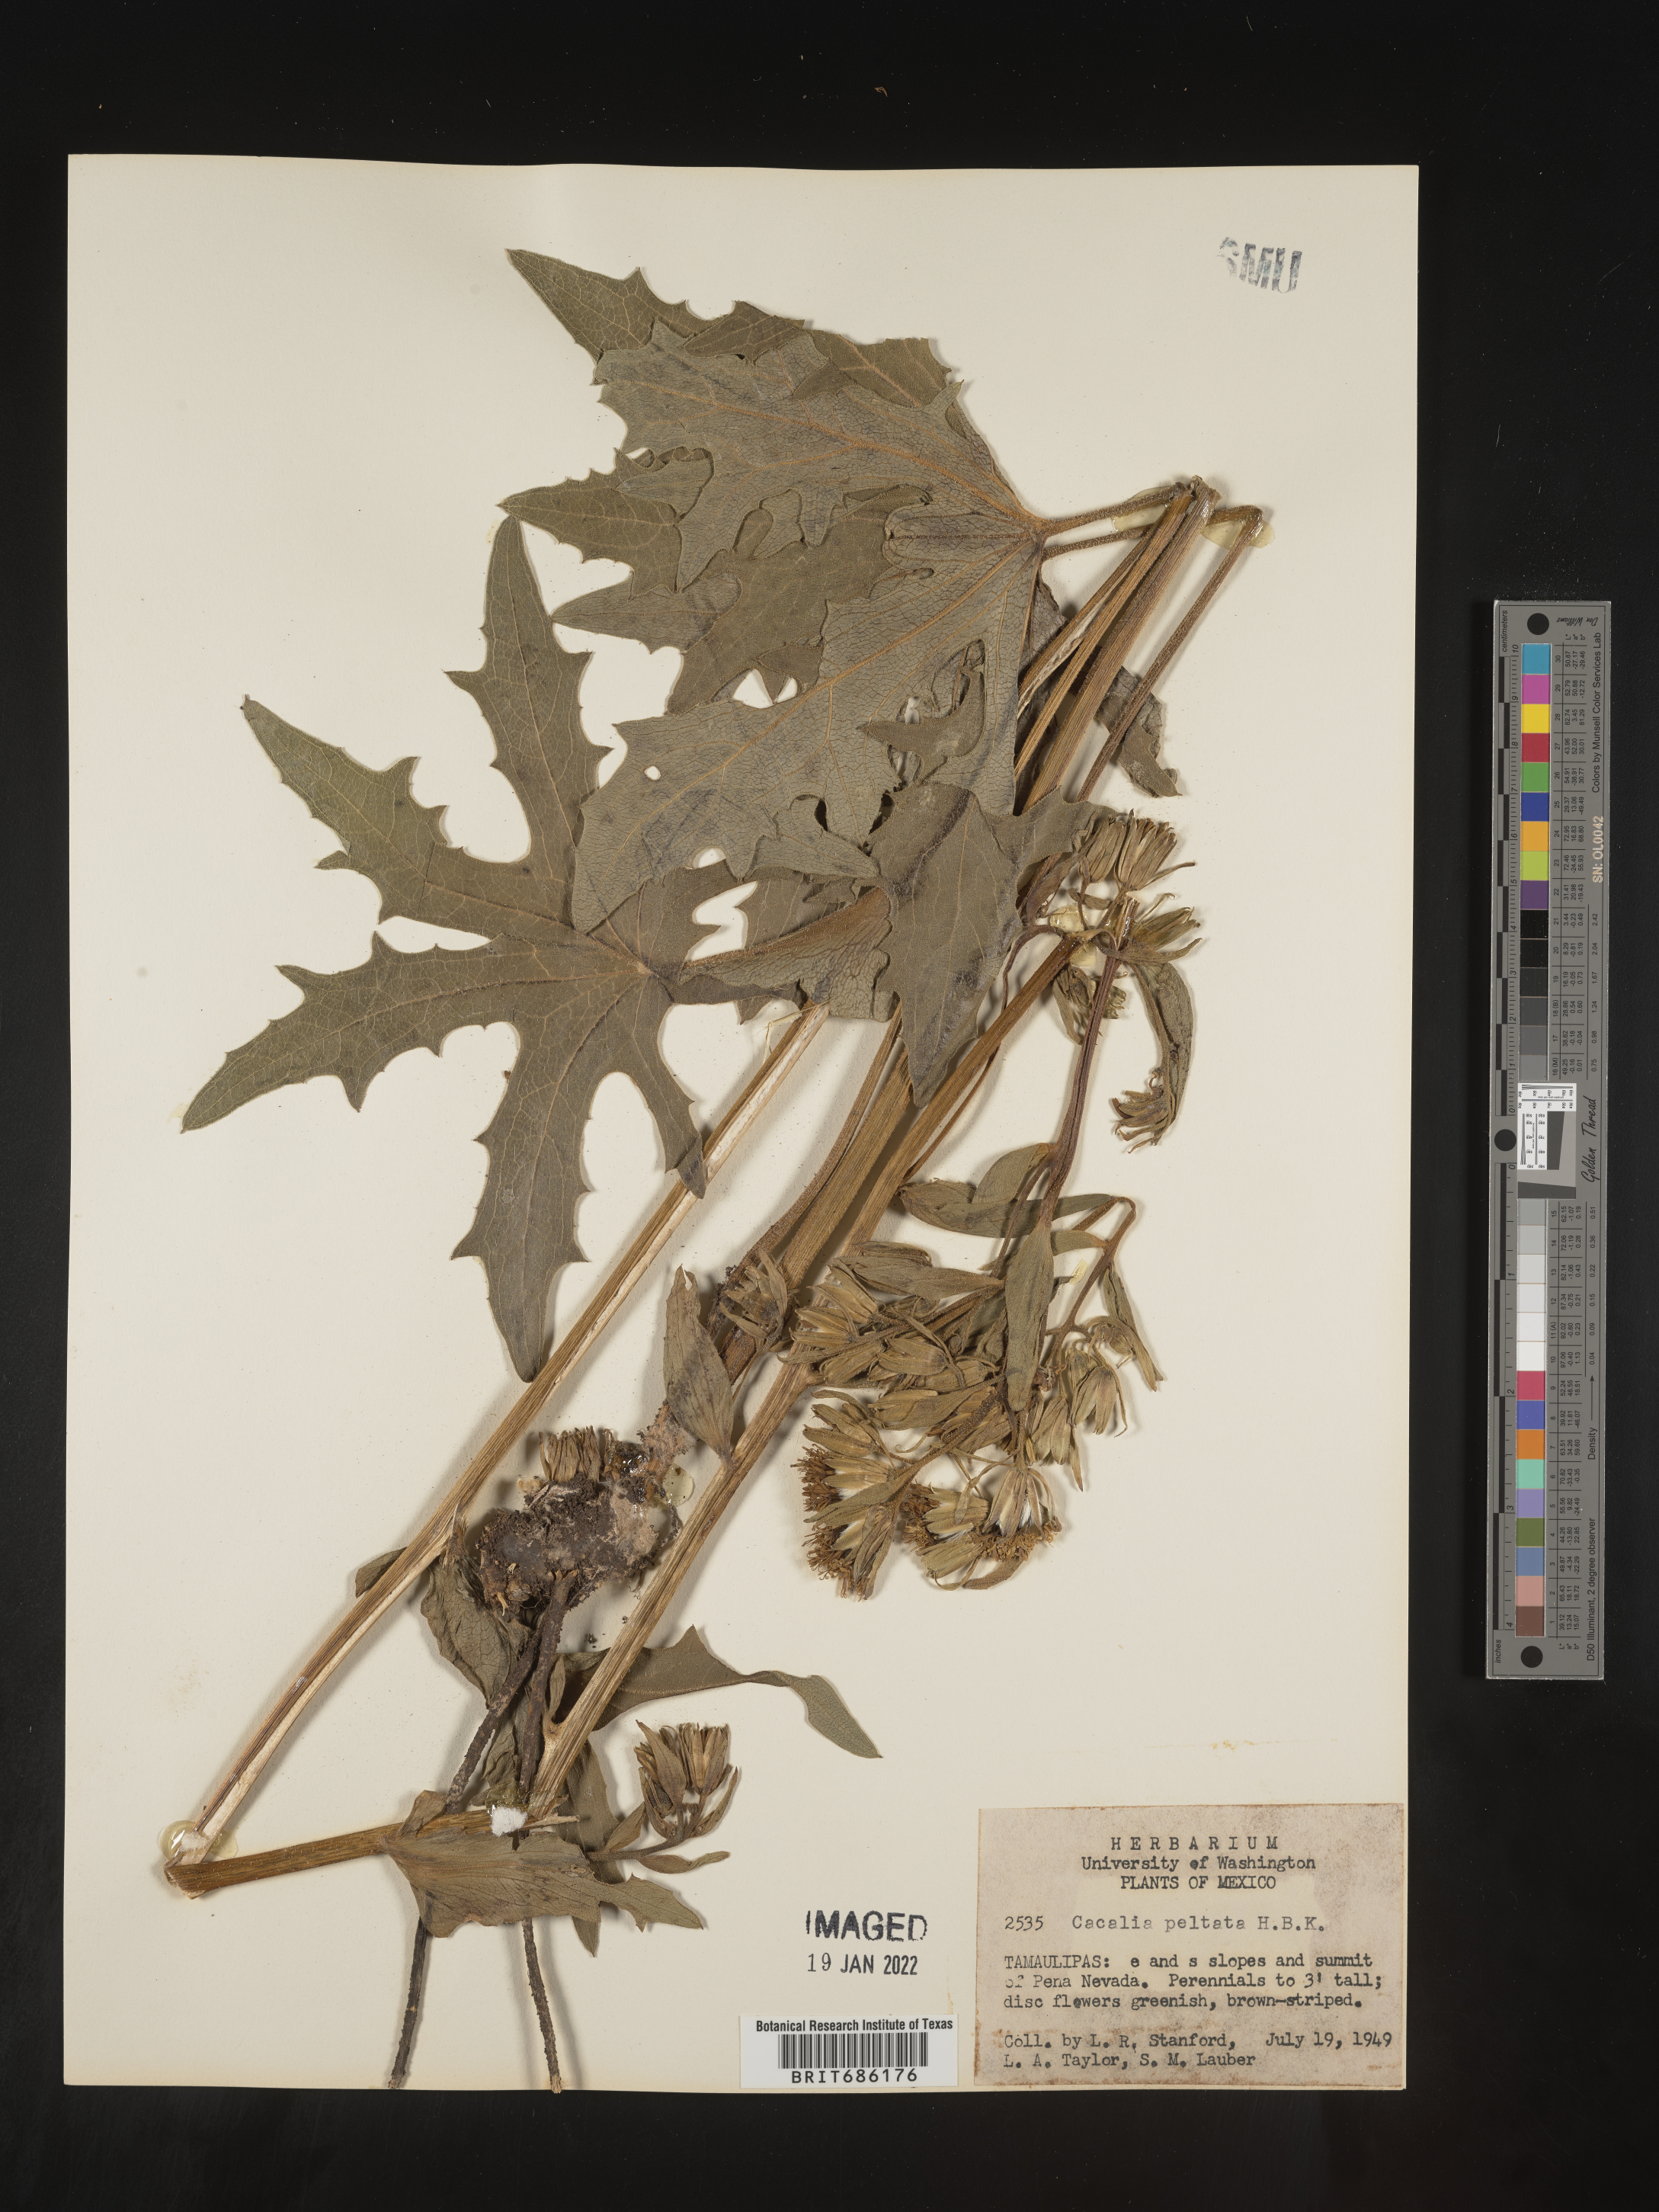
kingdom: Plantae
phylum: Tracheophyta
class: Magnoliopsida
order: Asterales
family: Asteraceae
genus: Cacalia
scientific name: Cacalia
